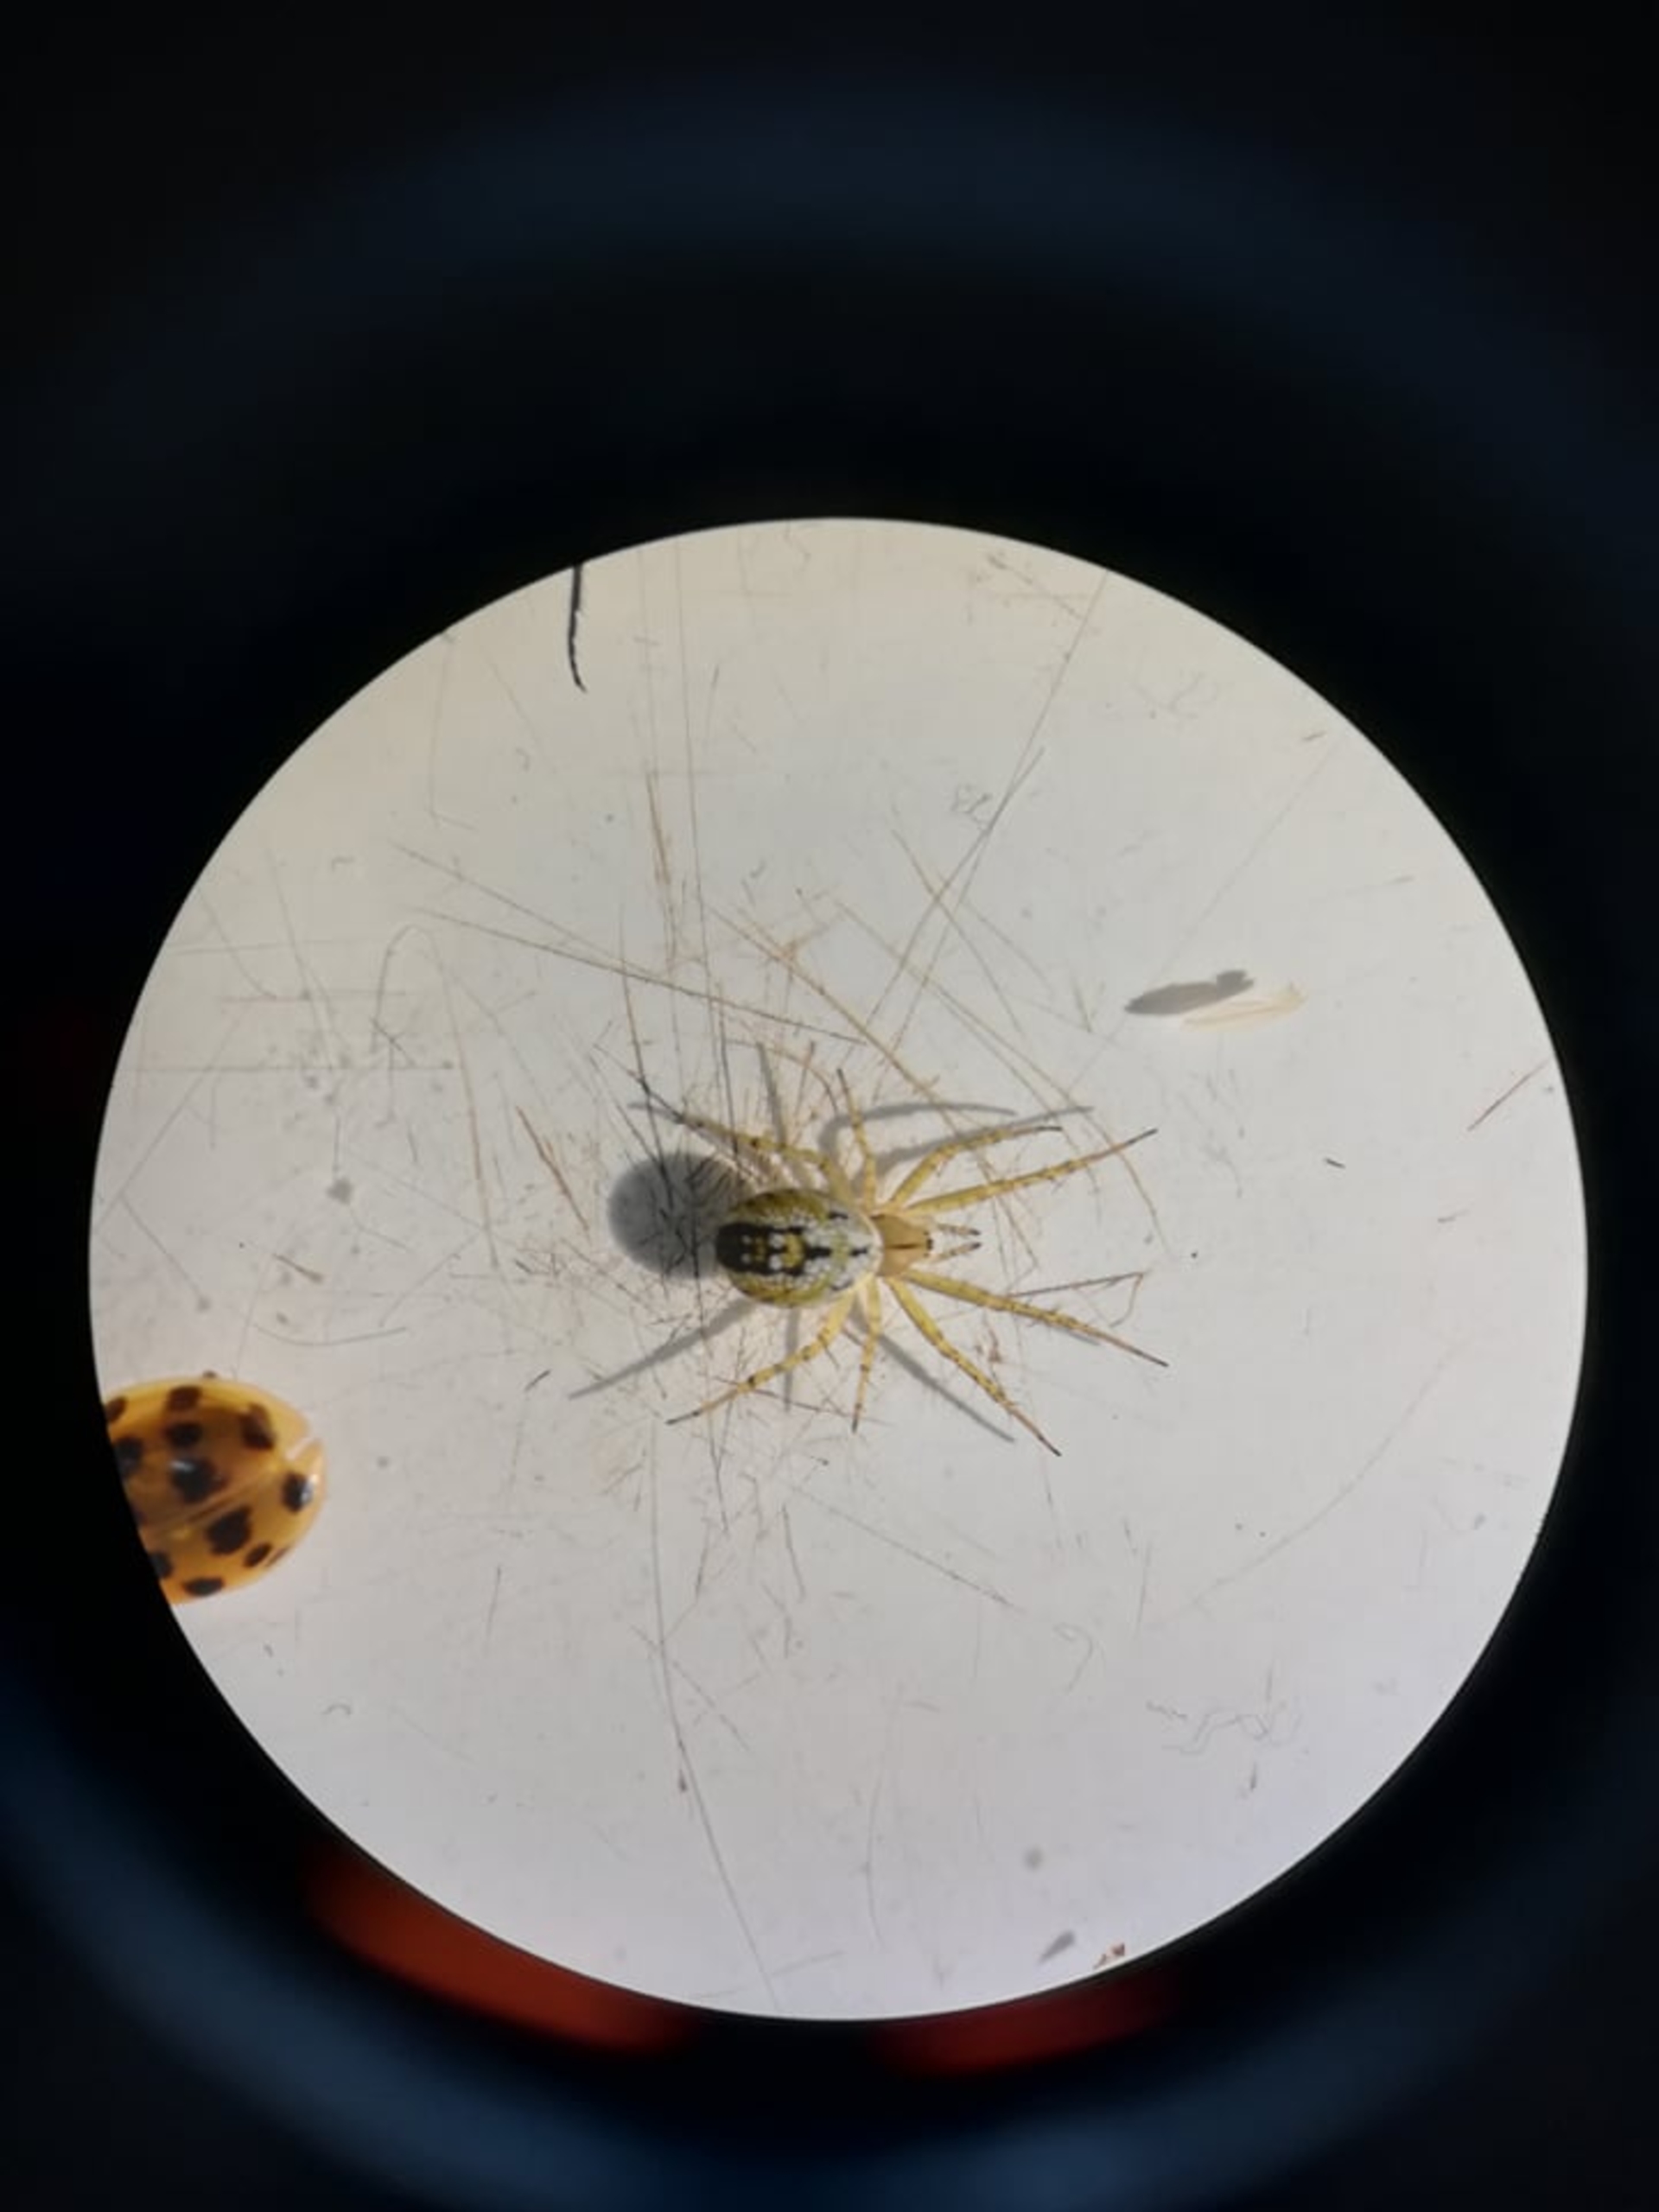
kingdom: Animalia
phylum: Arthropoda
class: Arachnida
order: Araneae
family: Araneidae
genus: Mangora
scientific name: Mangora acalypha
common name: Sortstribet hedehjulspinder
